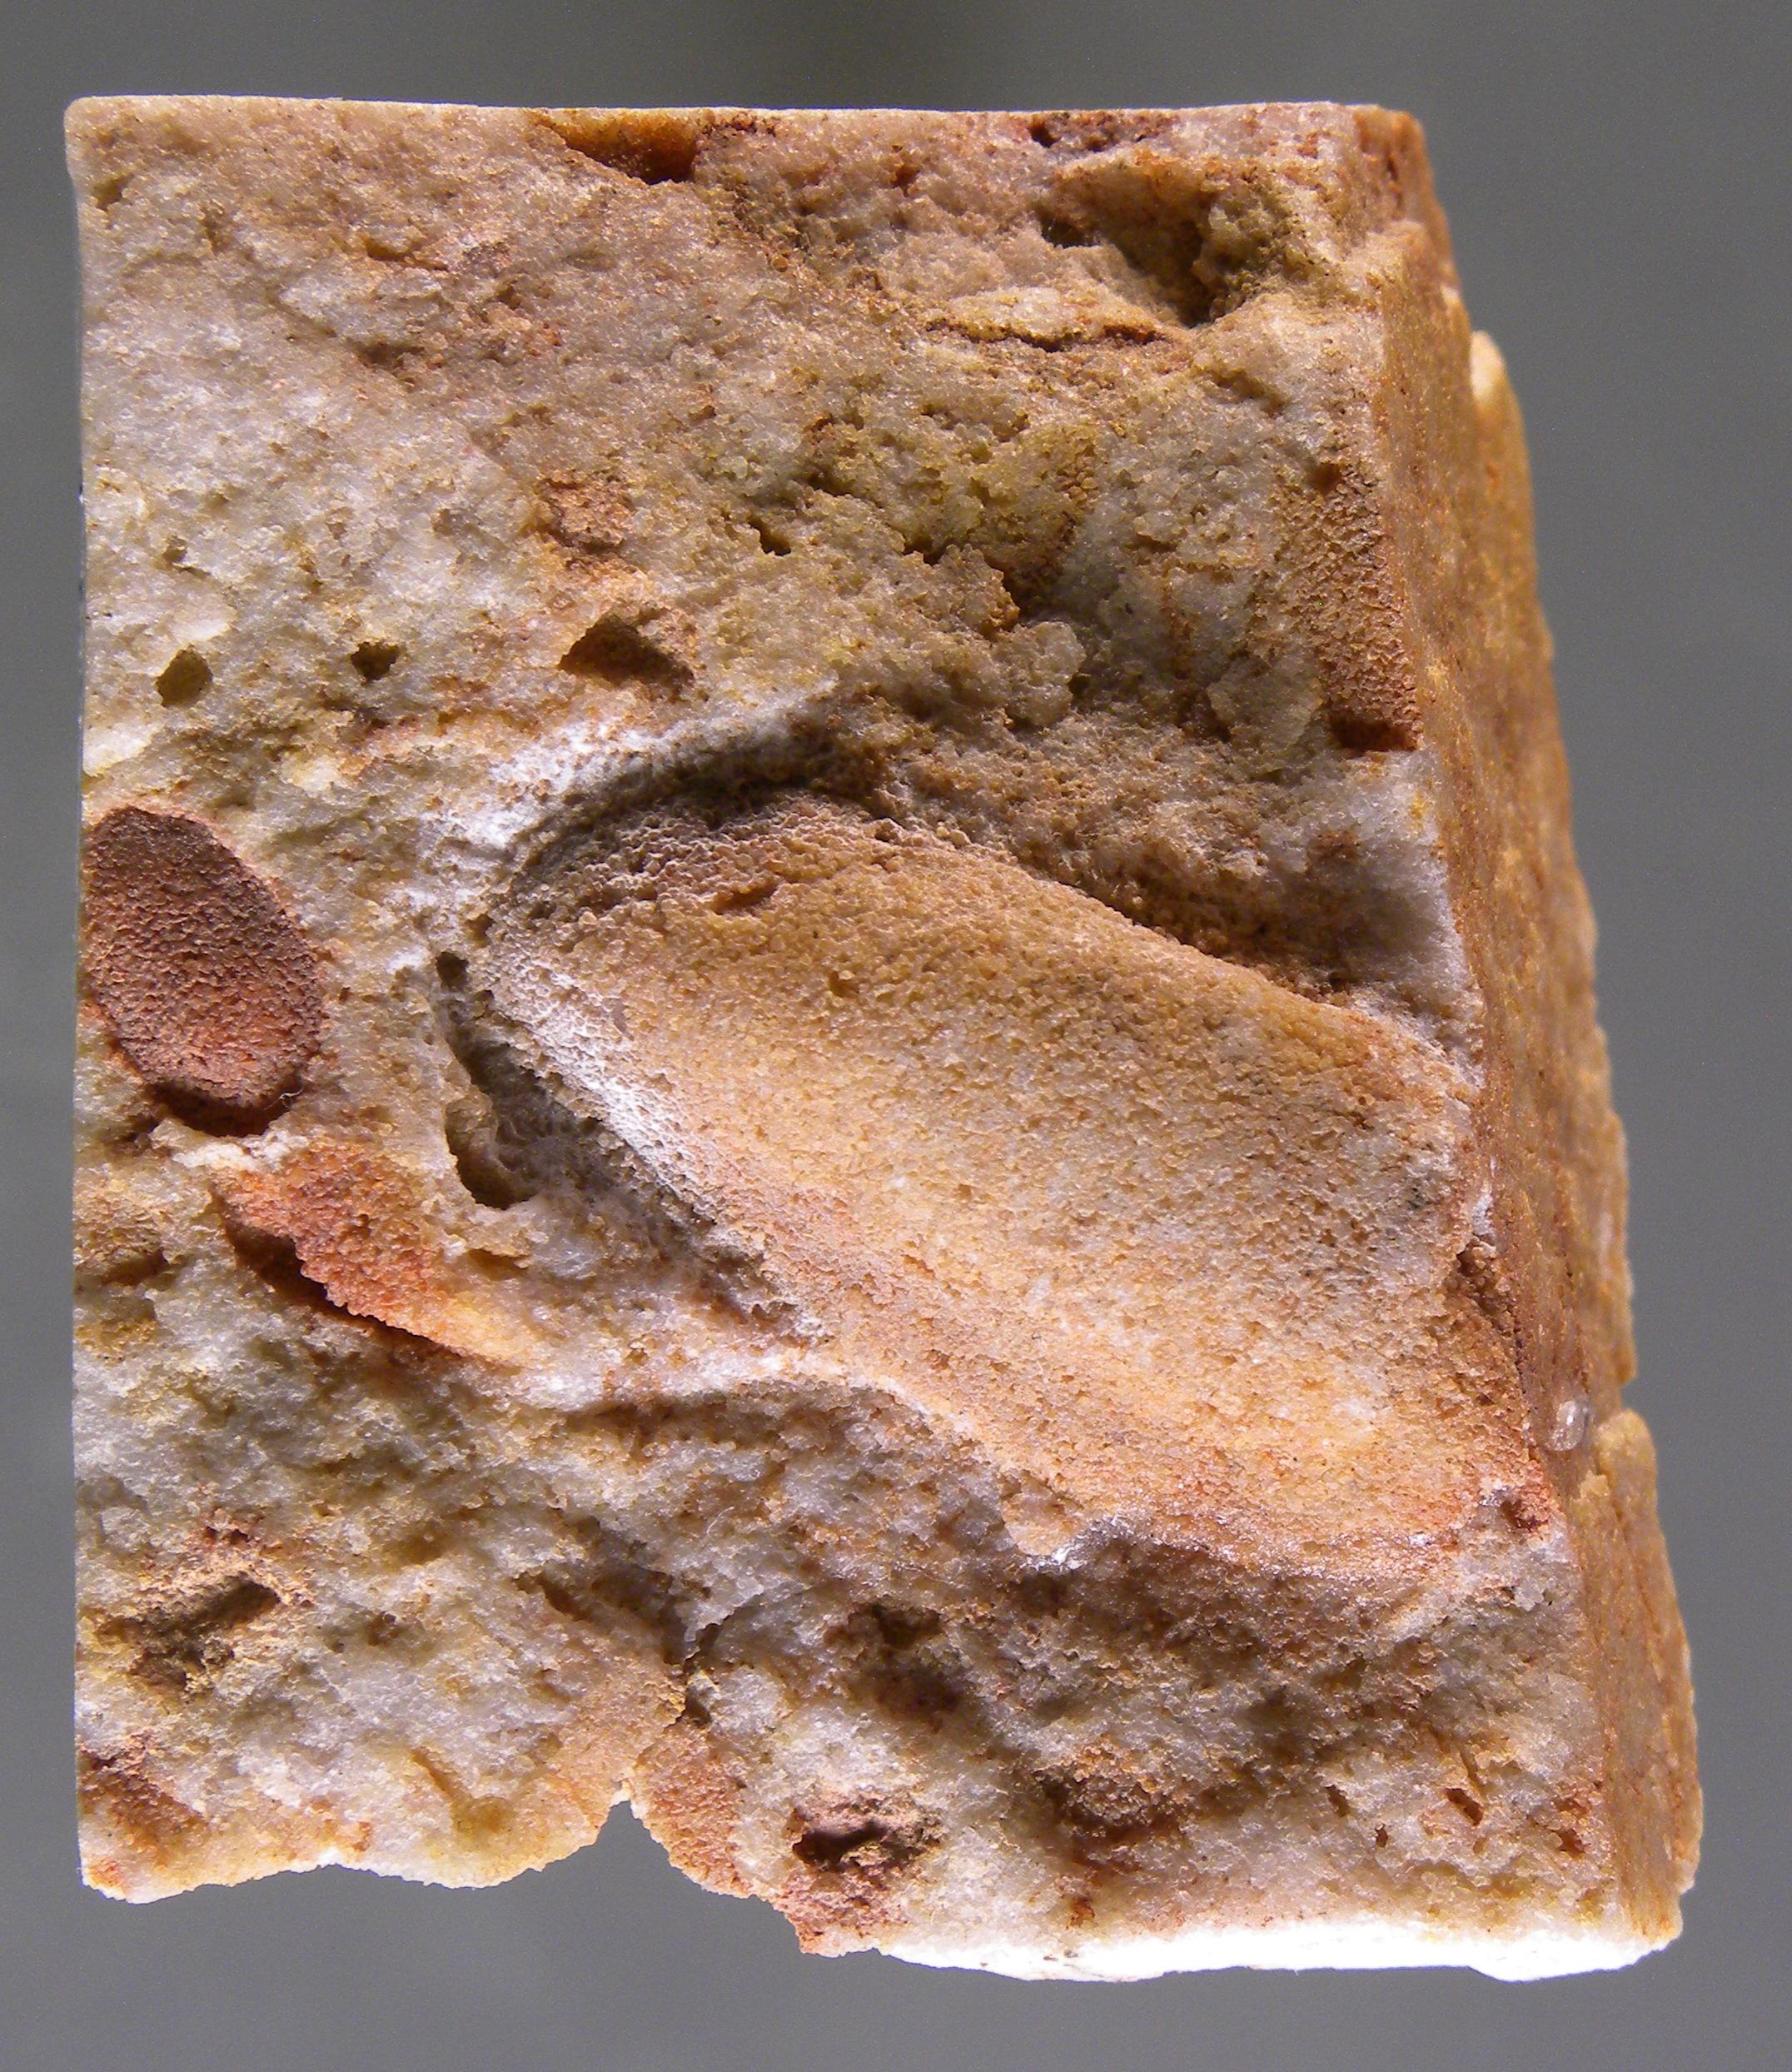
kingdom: Animalia
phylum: Mollusca
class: Bivalvia
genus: Rhenanomya
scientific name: Rhenanomya
